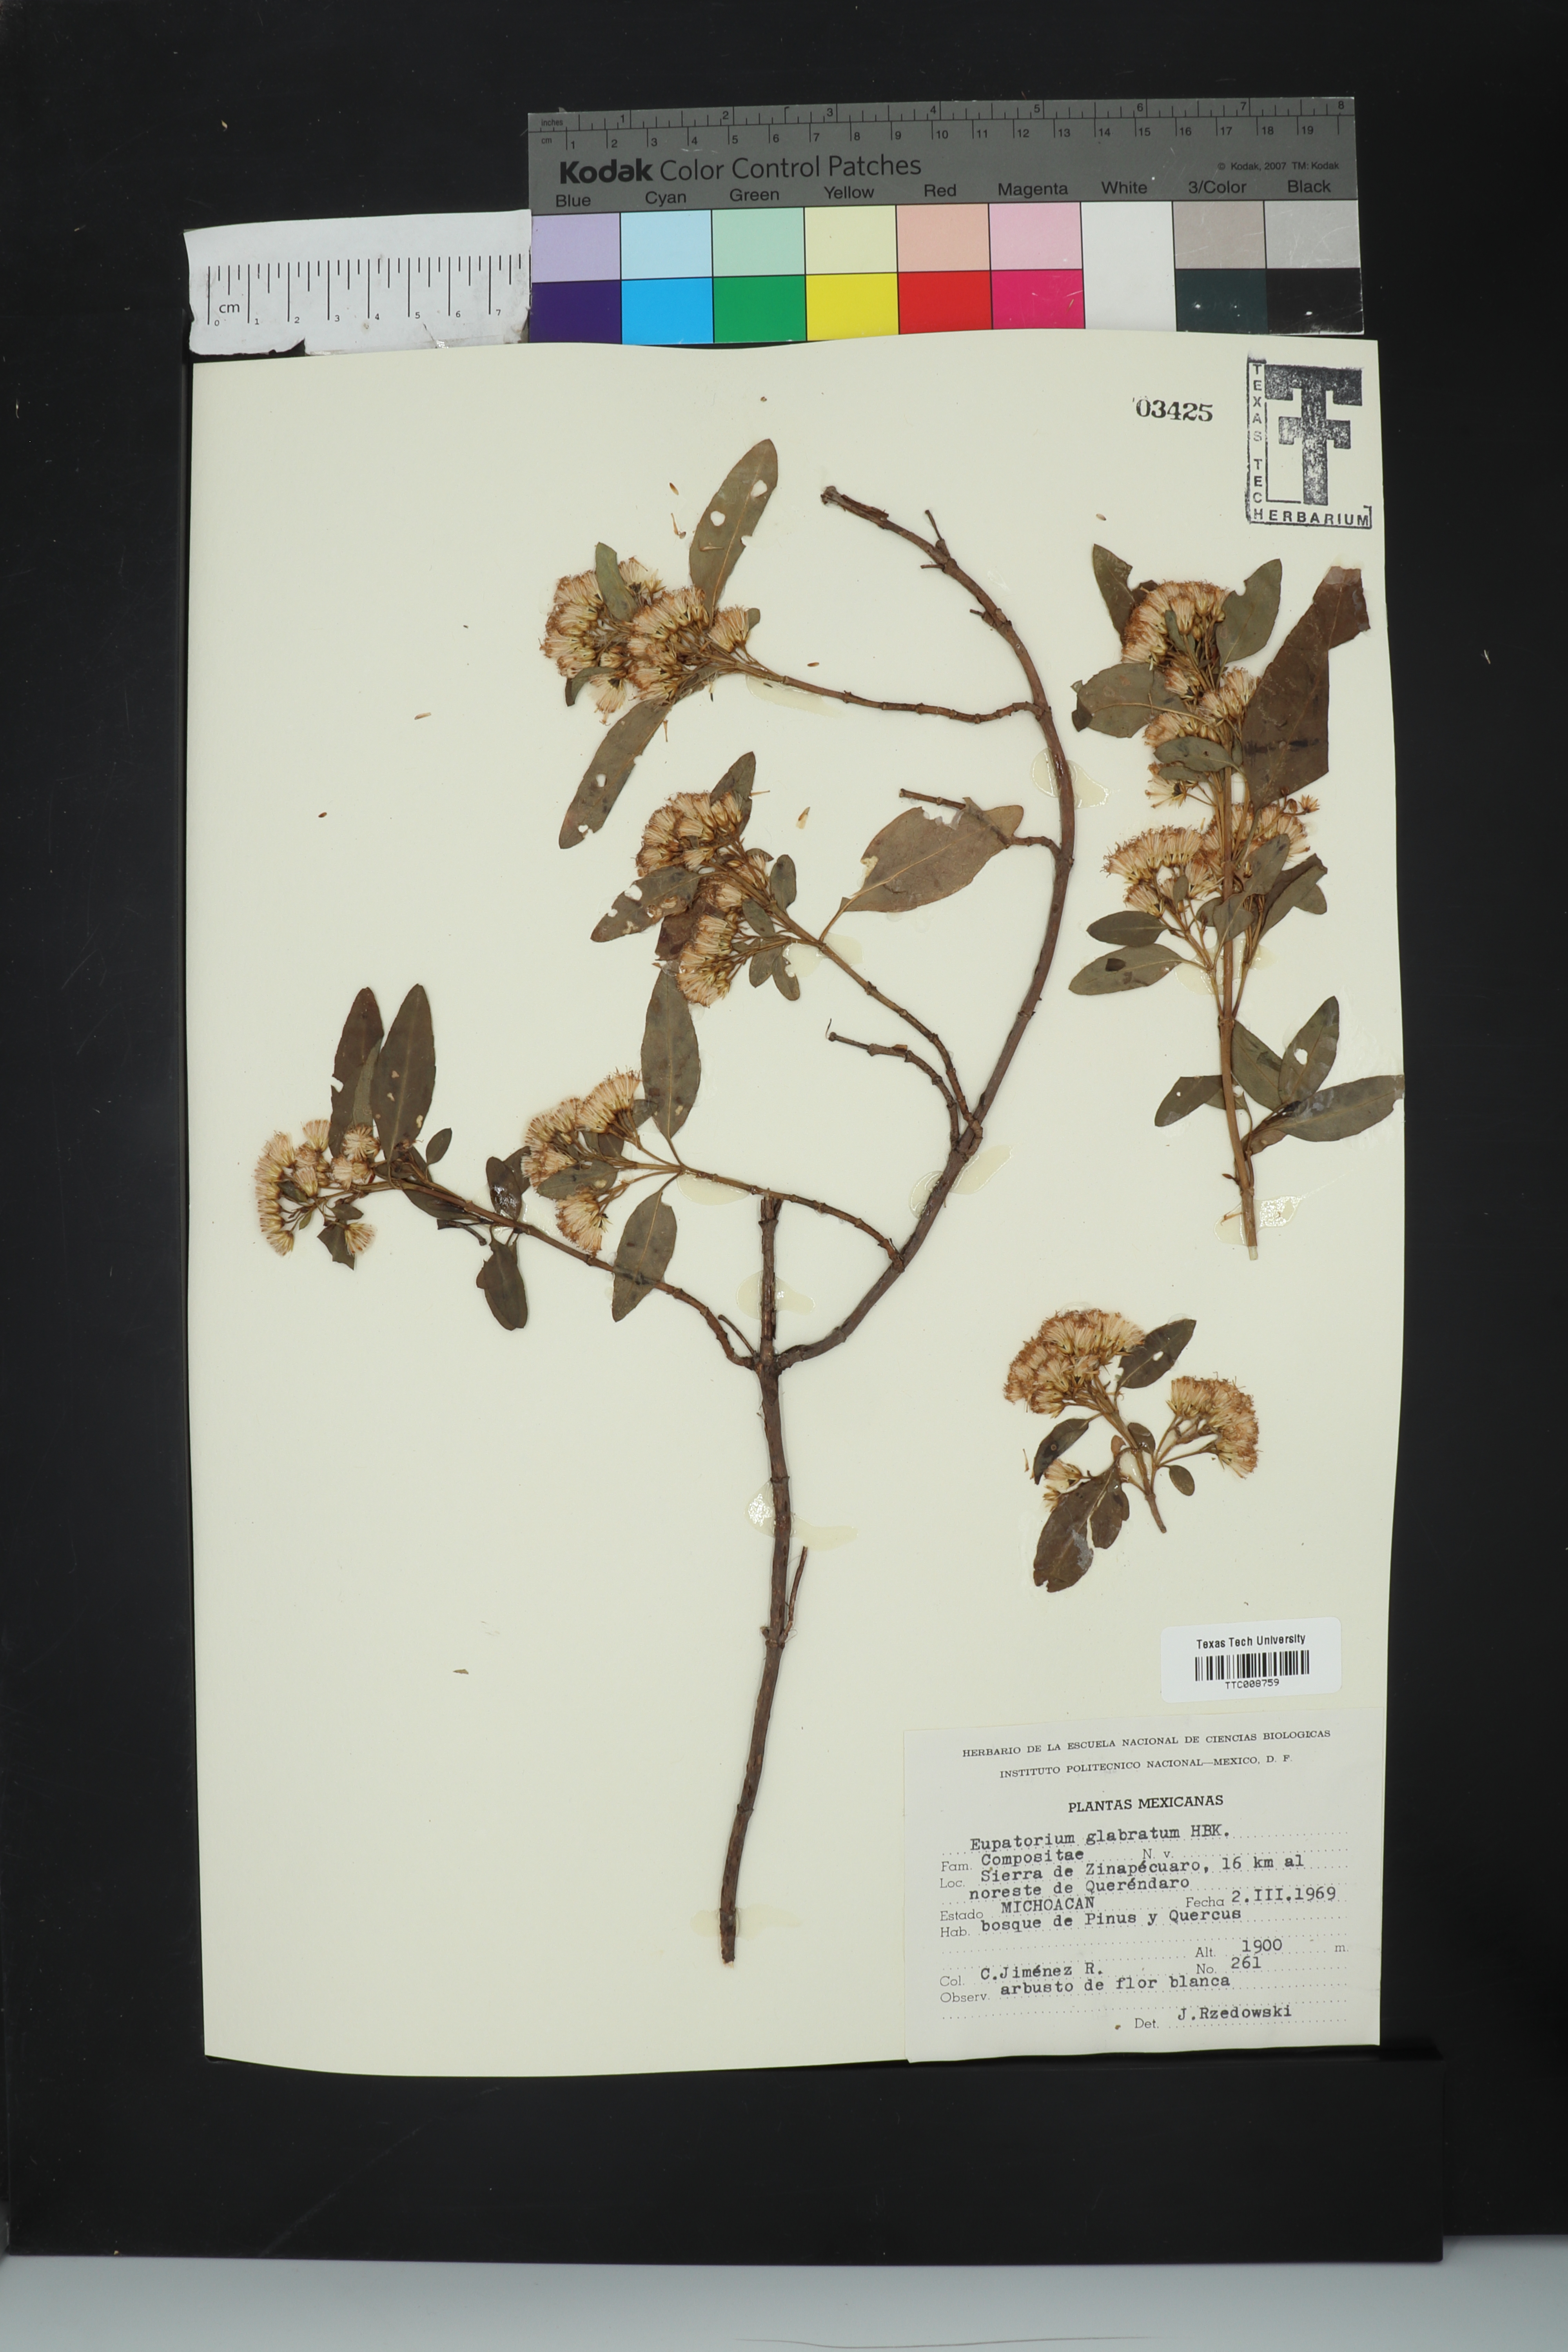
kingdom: Plantae
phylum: Tracheophyta
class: Magnoliopsida
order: Asterales
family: Asteraceae
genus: Ageratina
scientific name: Ageratina glabrata
